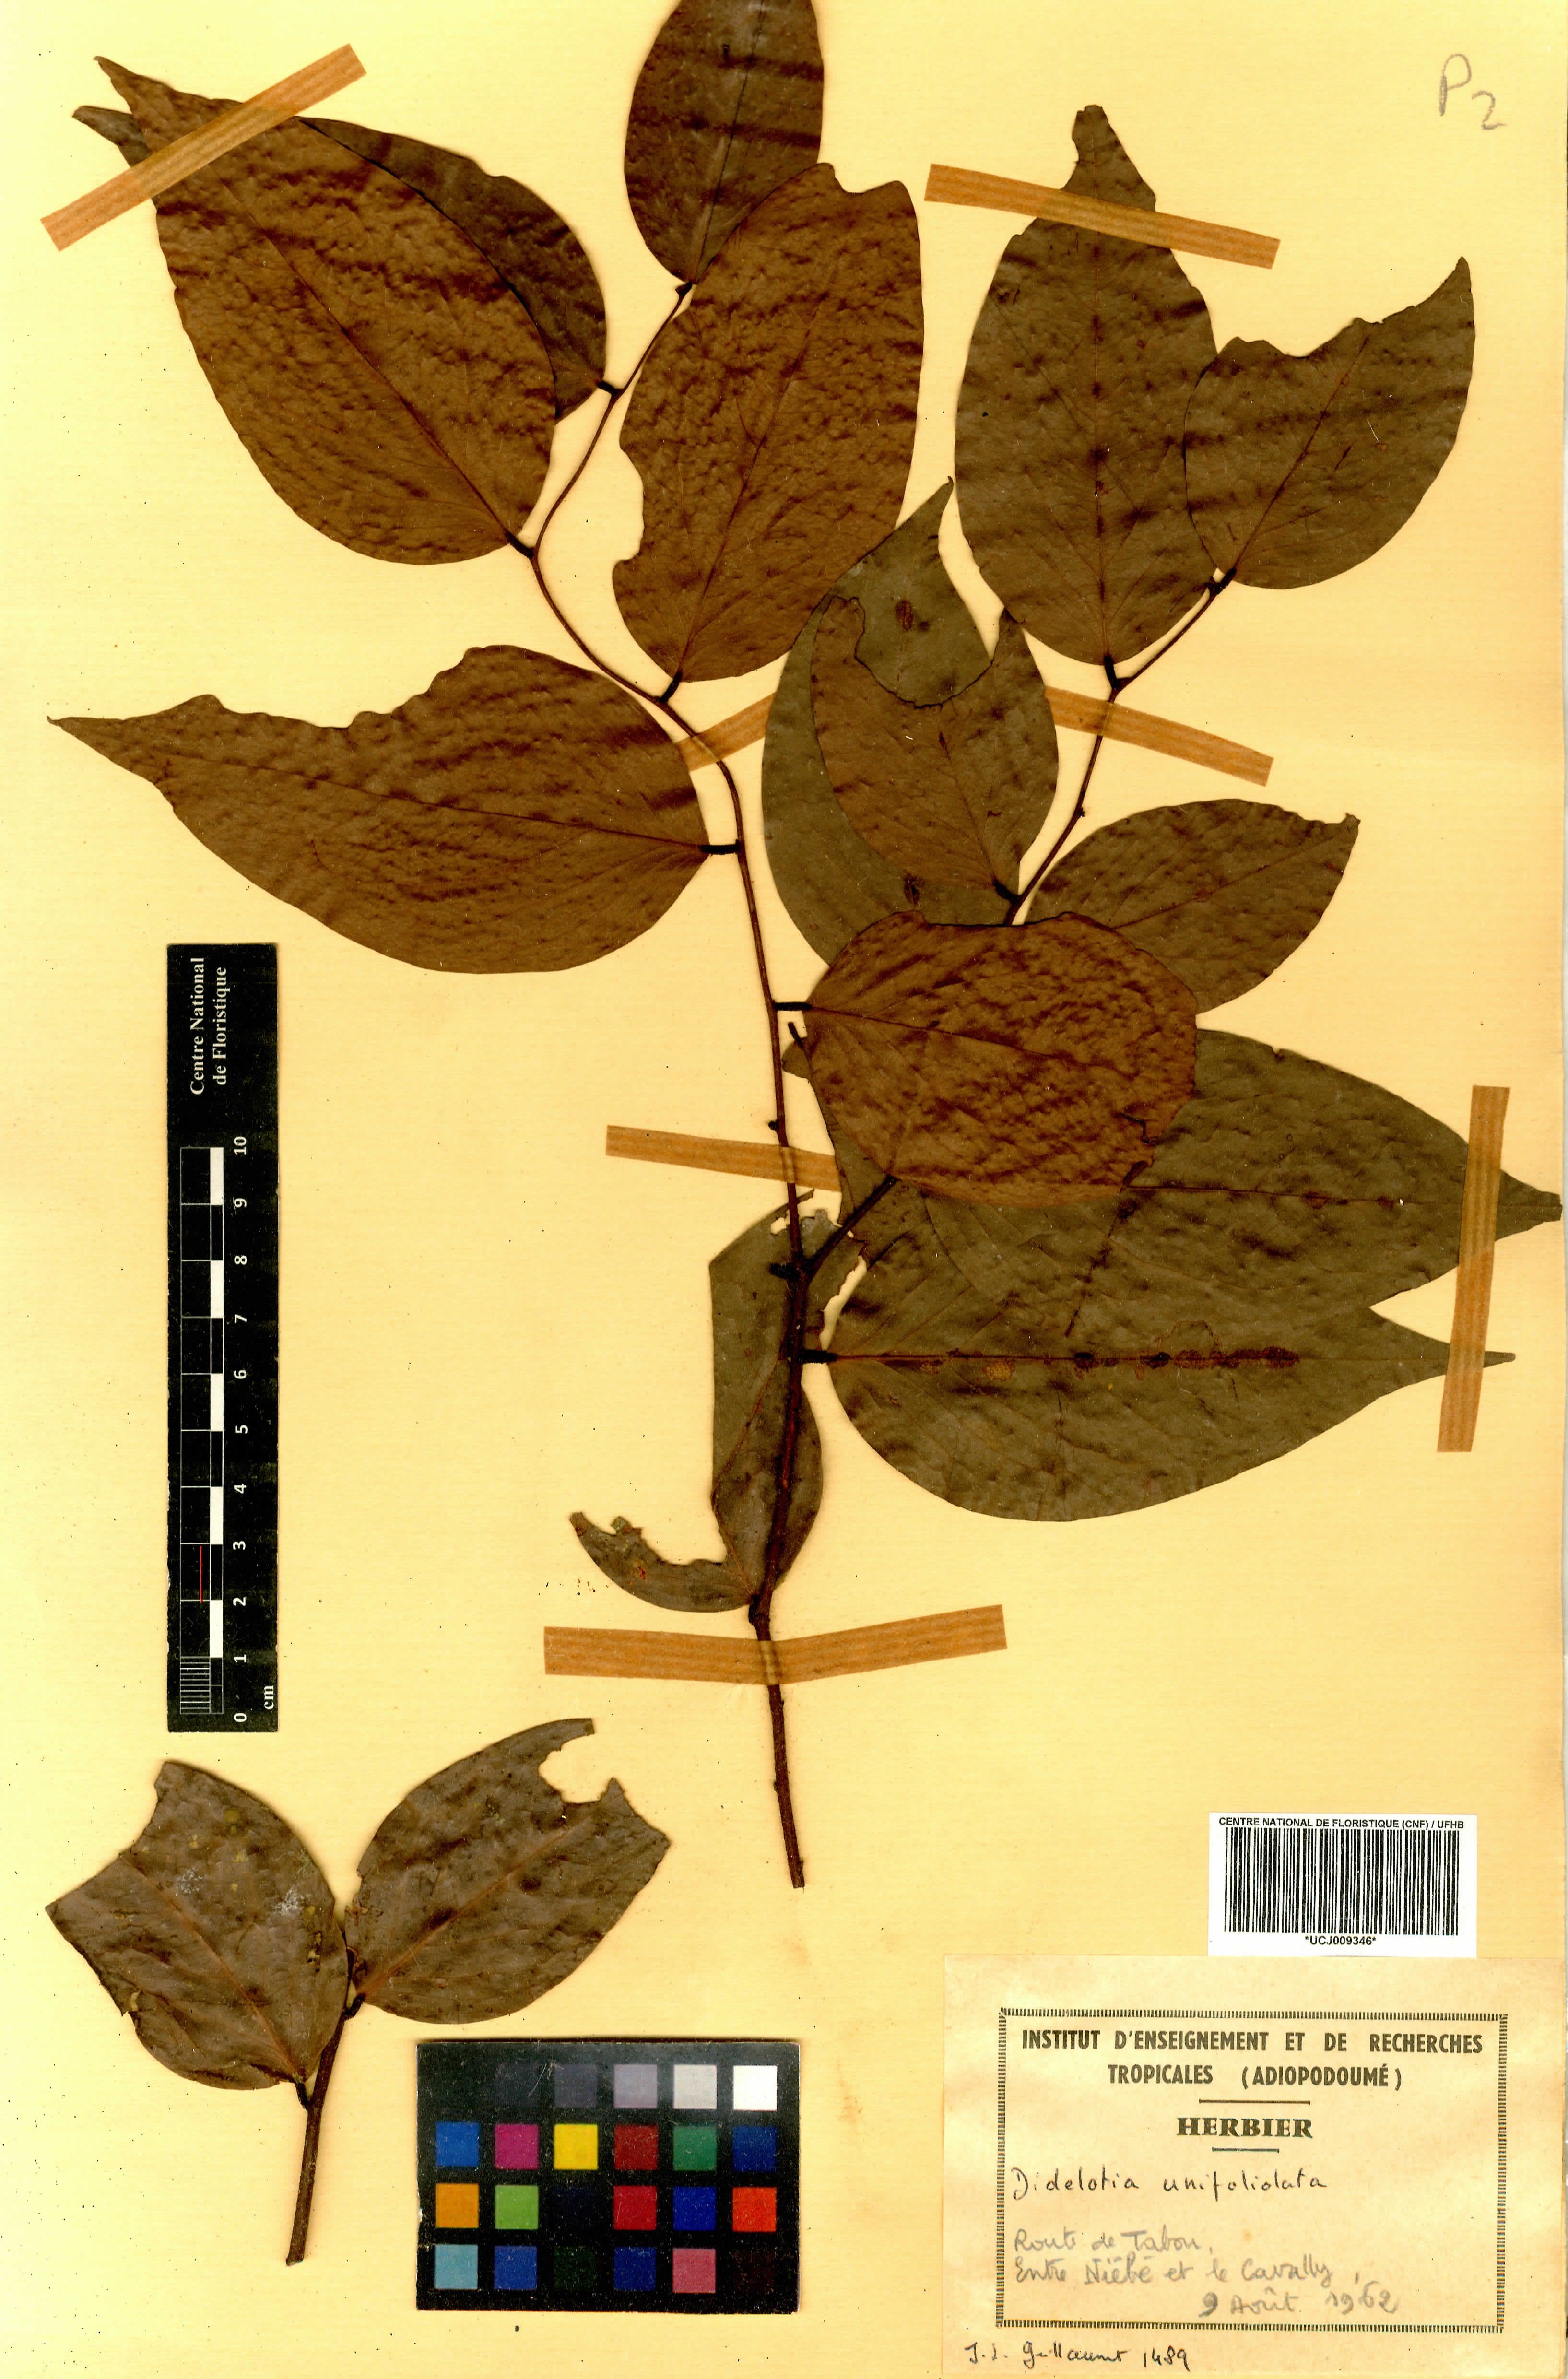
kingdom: Plantae
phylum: Tracheophyta
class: Magnoliopsida
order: Fabales
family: Fabaceae
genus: Didelotia
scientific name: Didelotia unifoliolata
